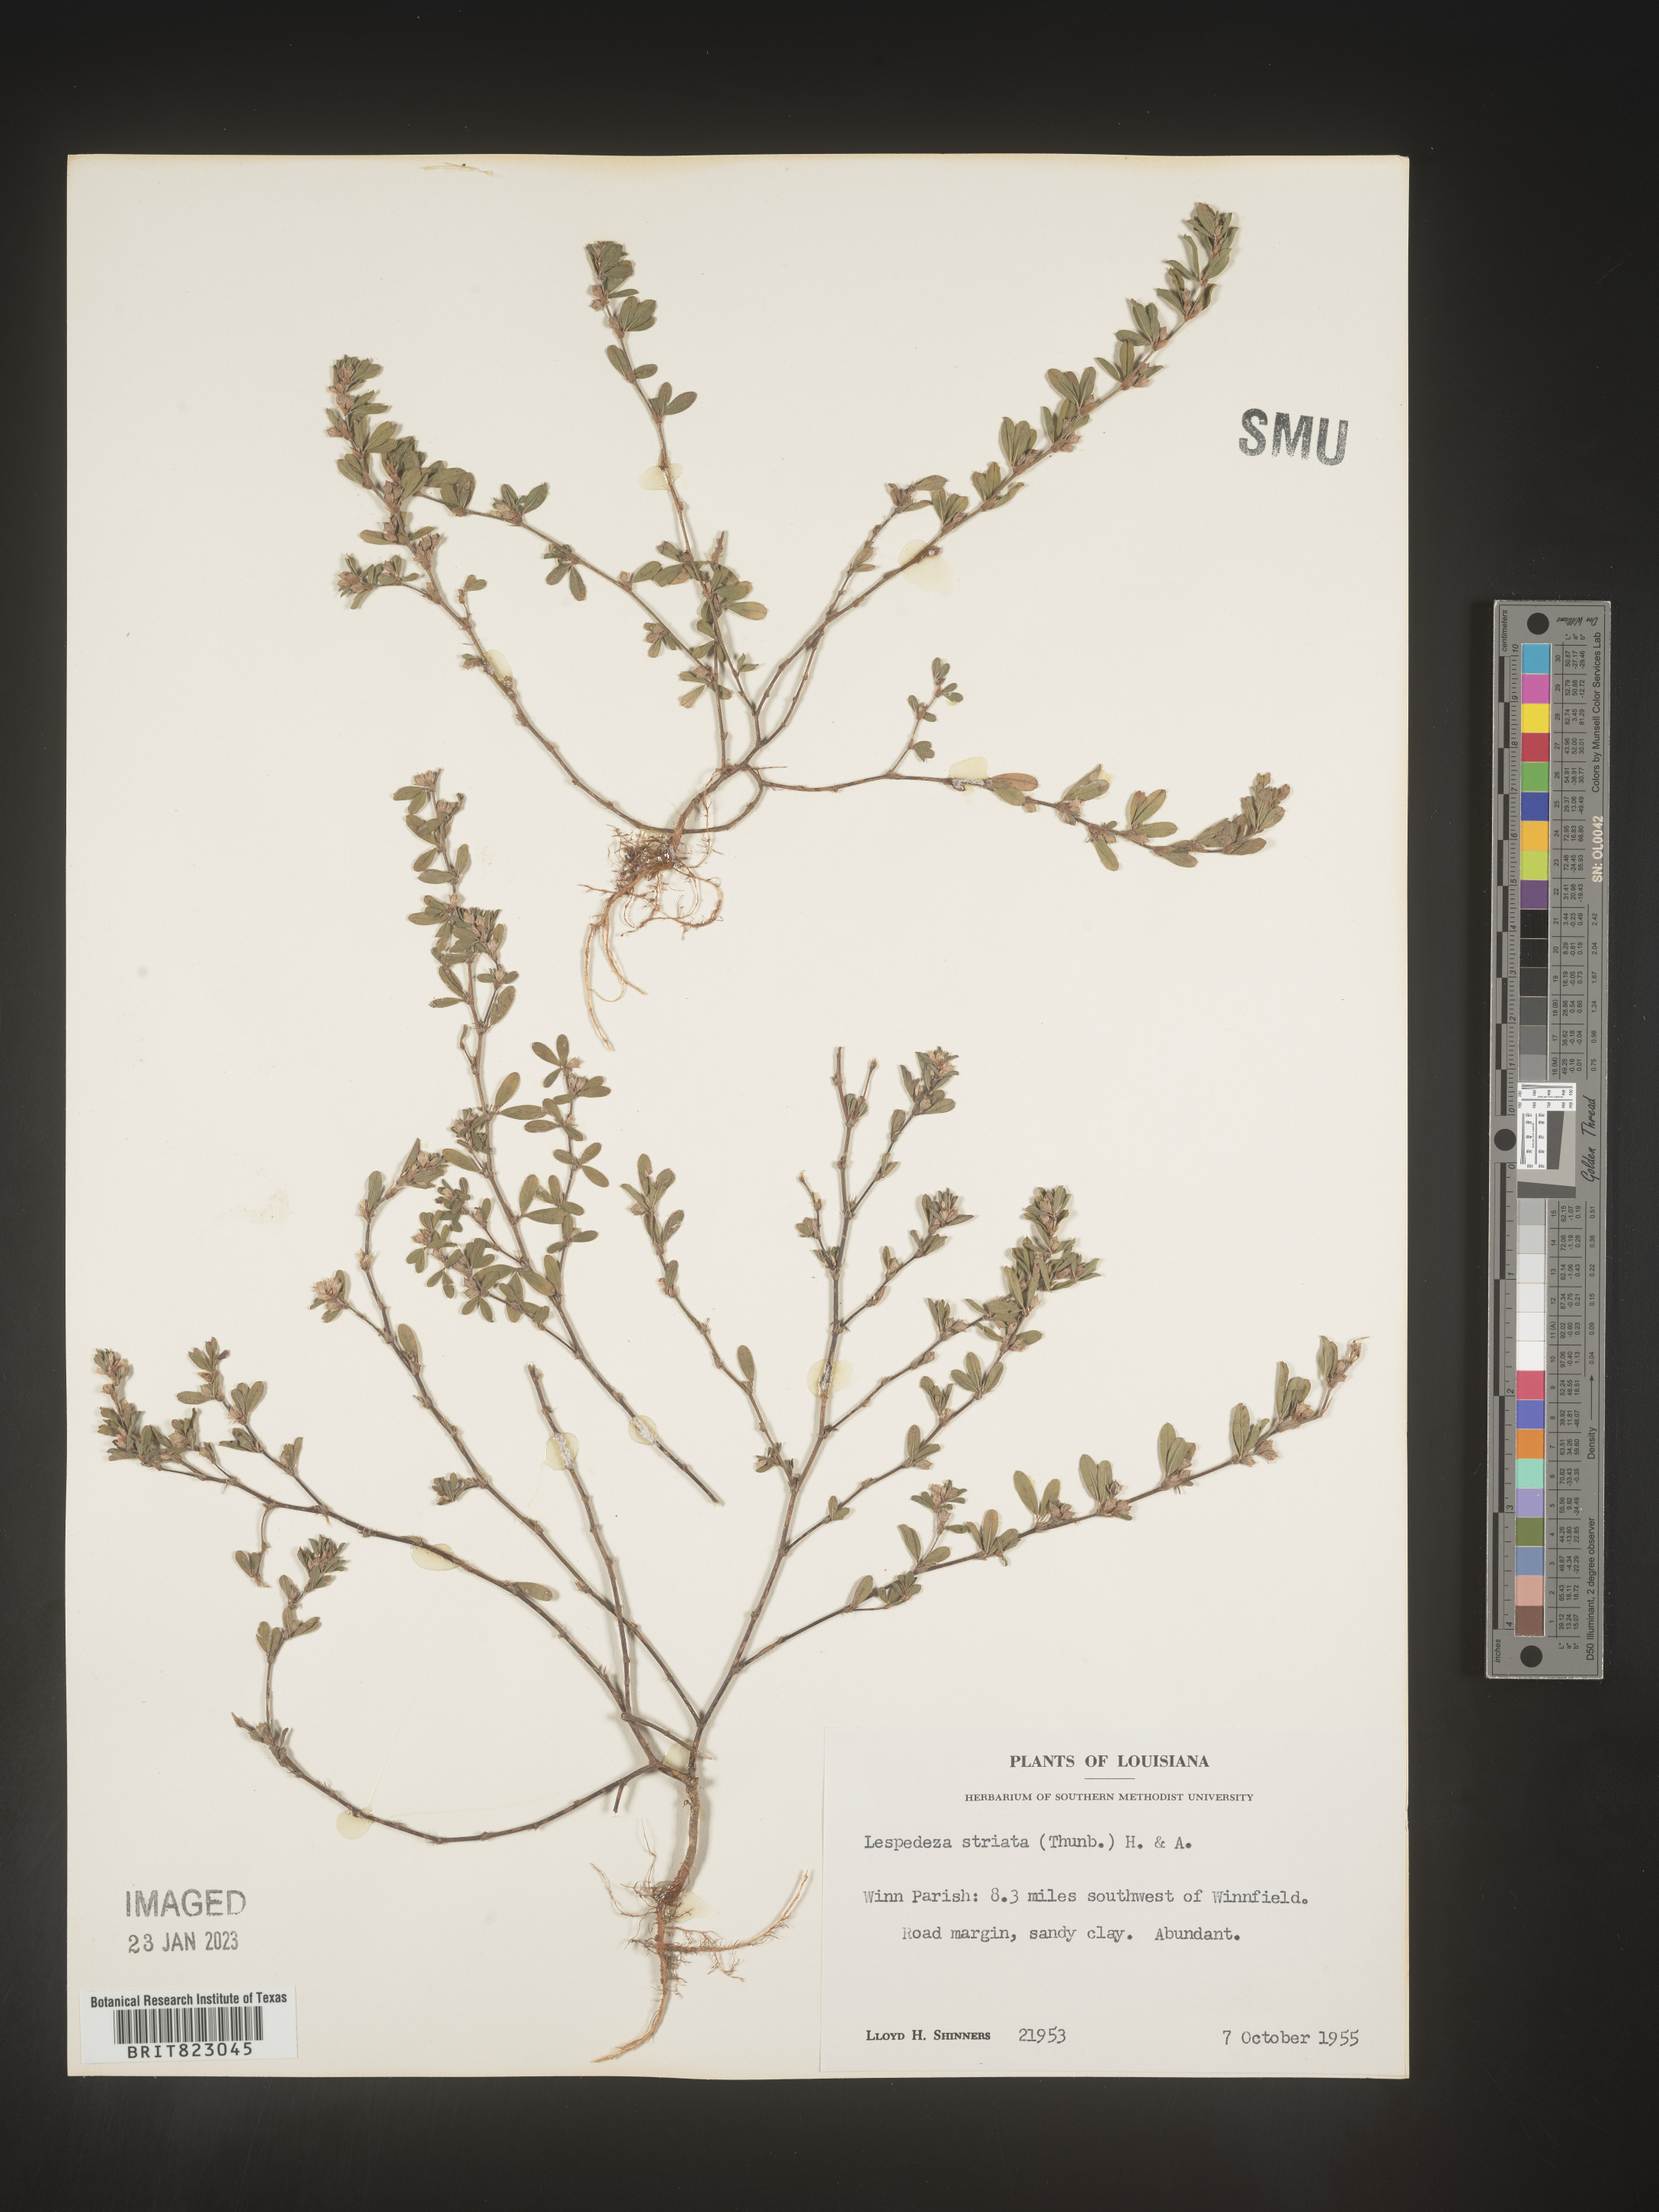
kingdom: Plantae
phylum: Tracheophyta
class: Magnoliopsida
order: Fabales
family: Fabaceae
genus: Kummerowia
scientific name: Kummerowia striata
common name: Japanese clover
